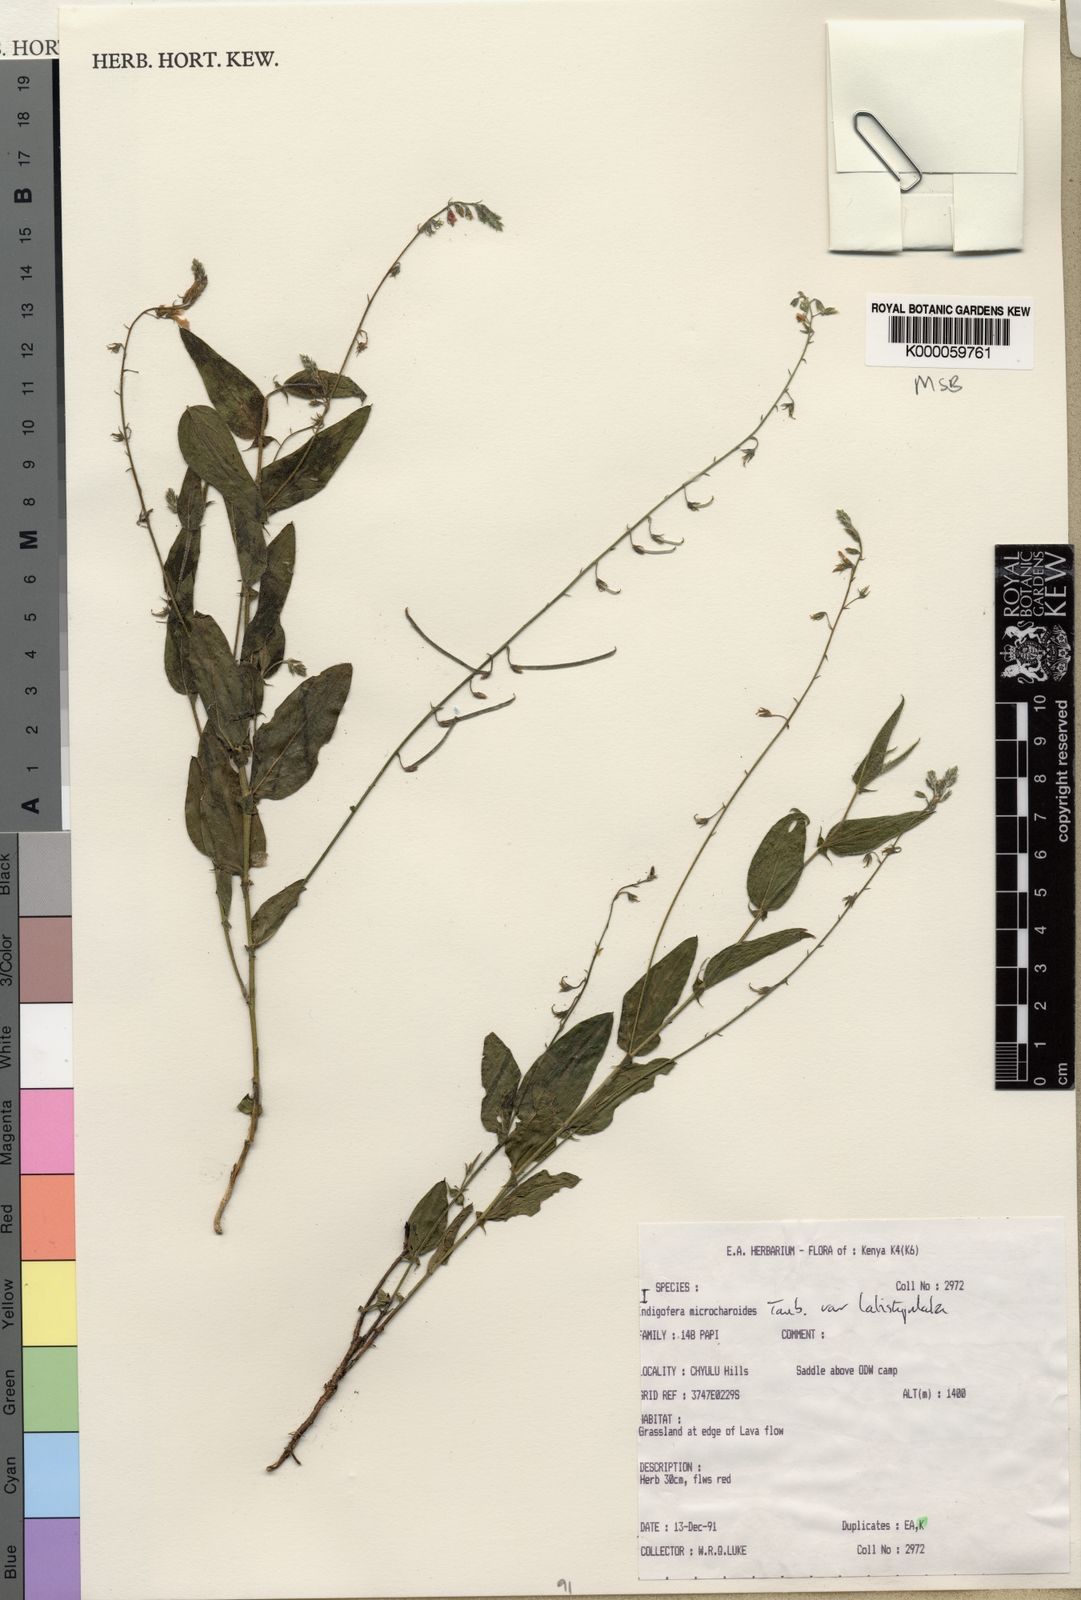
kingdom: Plantae
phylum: Tracheophyta
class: Magnoliopsida
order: Fabales
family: Fabaceae
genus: Indigofera
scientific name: Indigofera
